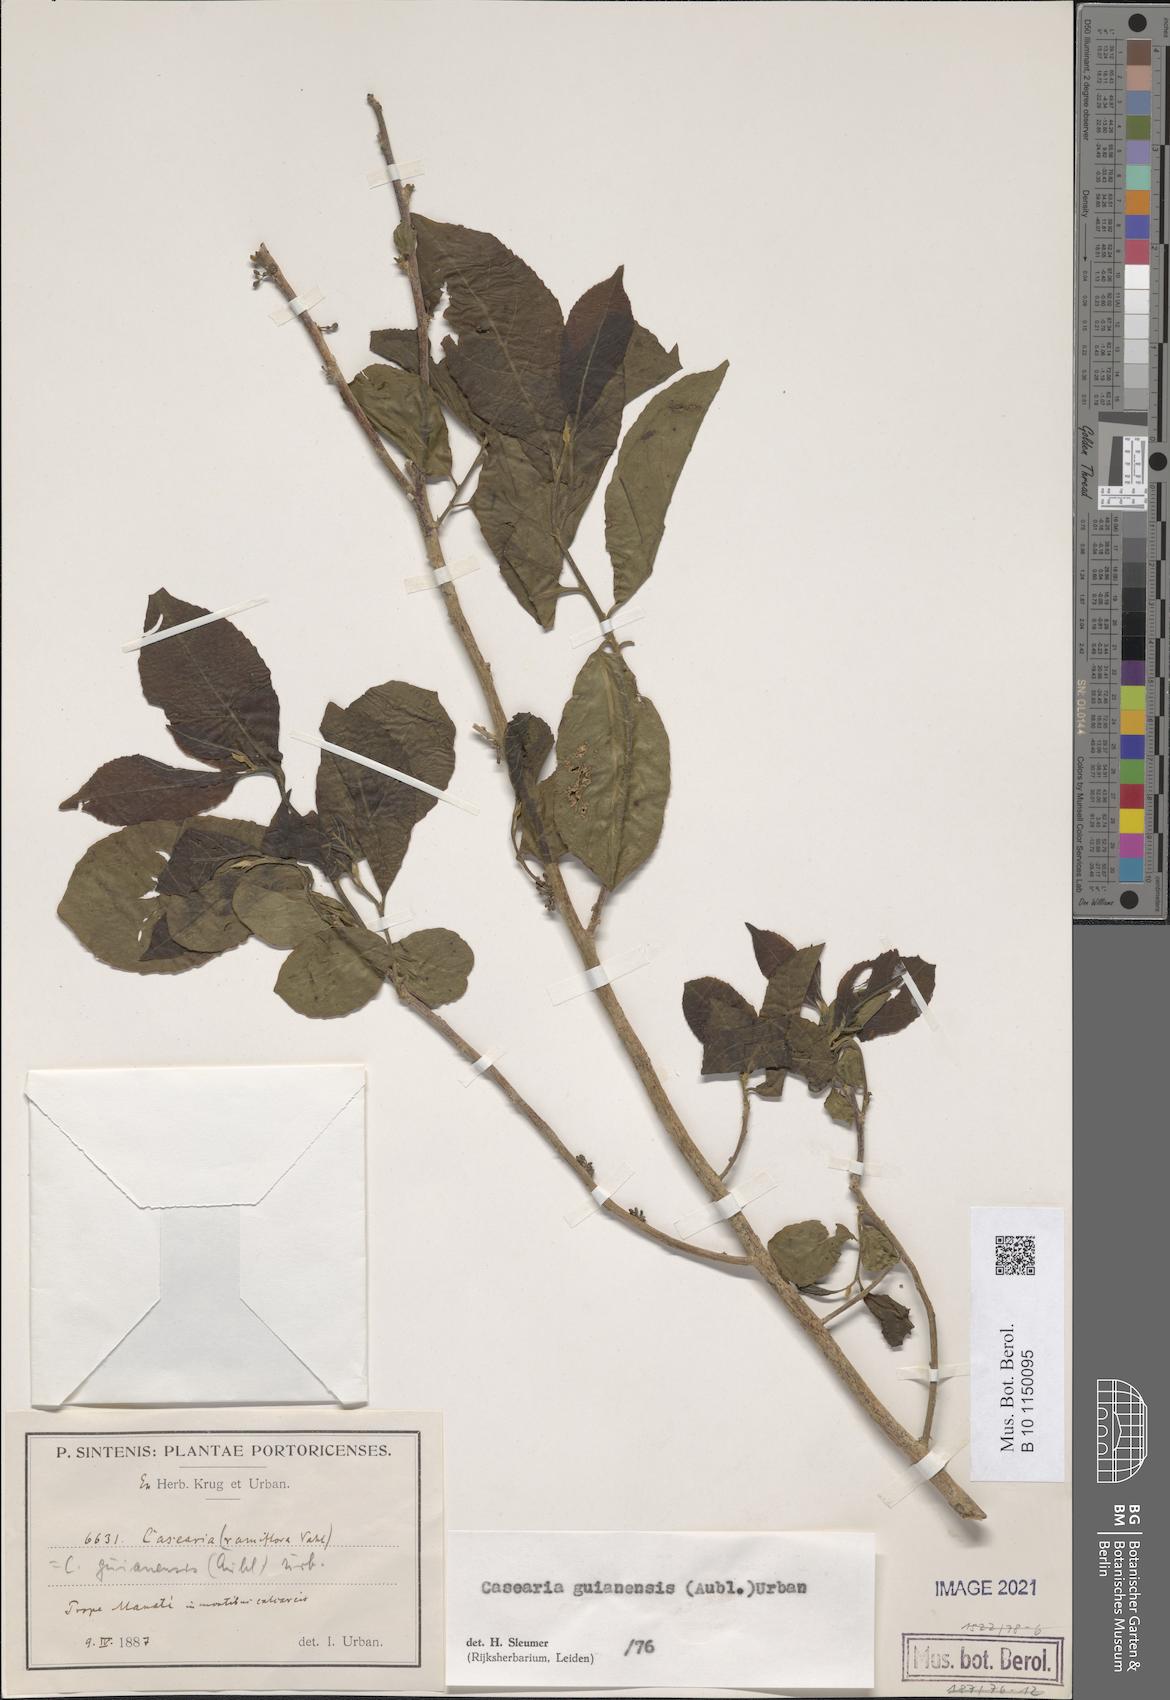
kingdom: Plantae
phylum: Tracheophyta
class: Magnoliopsida
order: Malpighiales
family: Salicaceae
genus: Casearia
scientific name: Casearia guianensis
